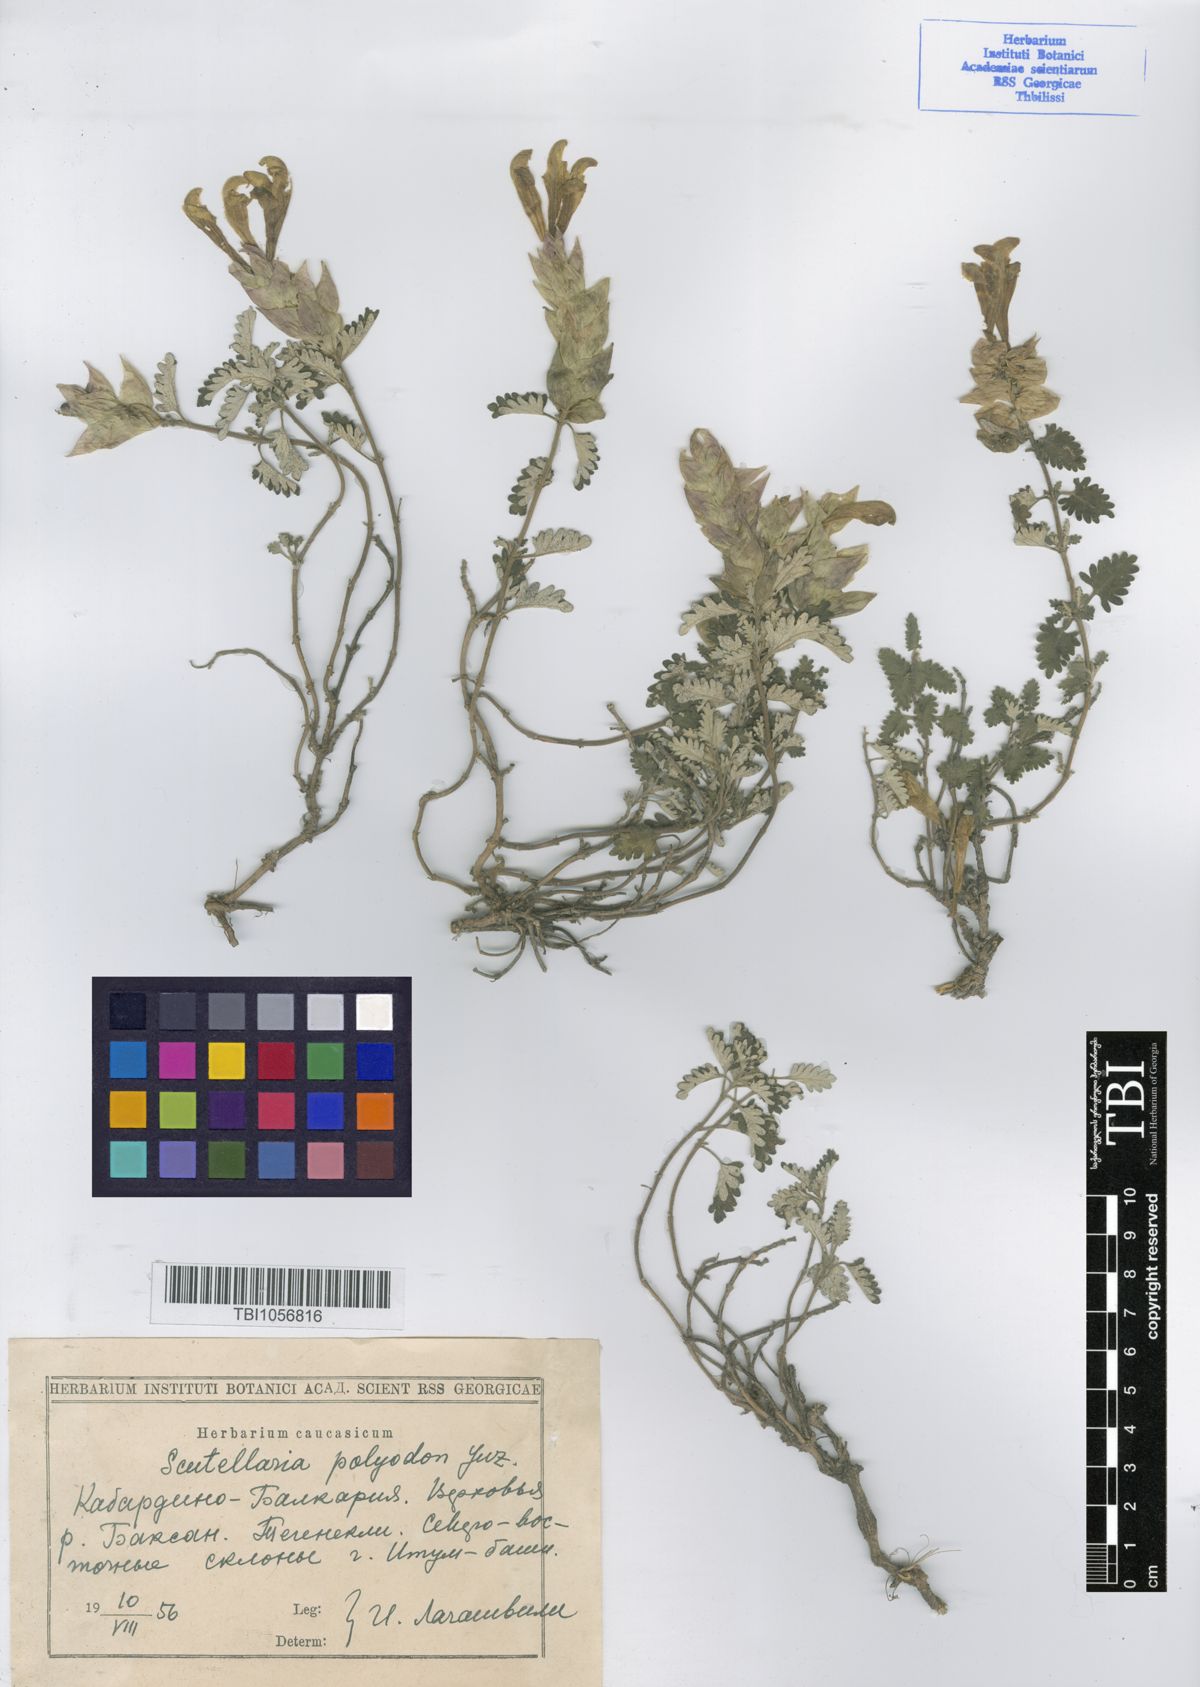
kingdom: Plantae
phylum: Tracheophyta
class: Magnoliopsida
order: Lamiales
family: Lamiaceae
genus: Scutellaria
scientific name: Scutellaria caucasica
